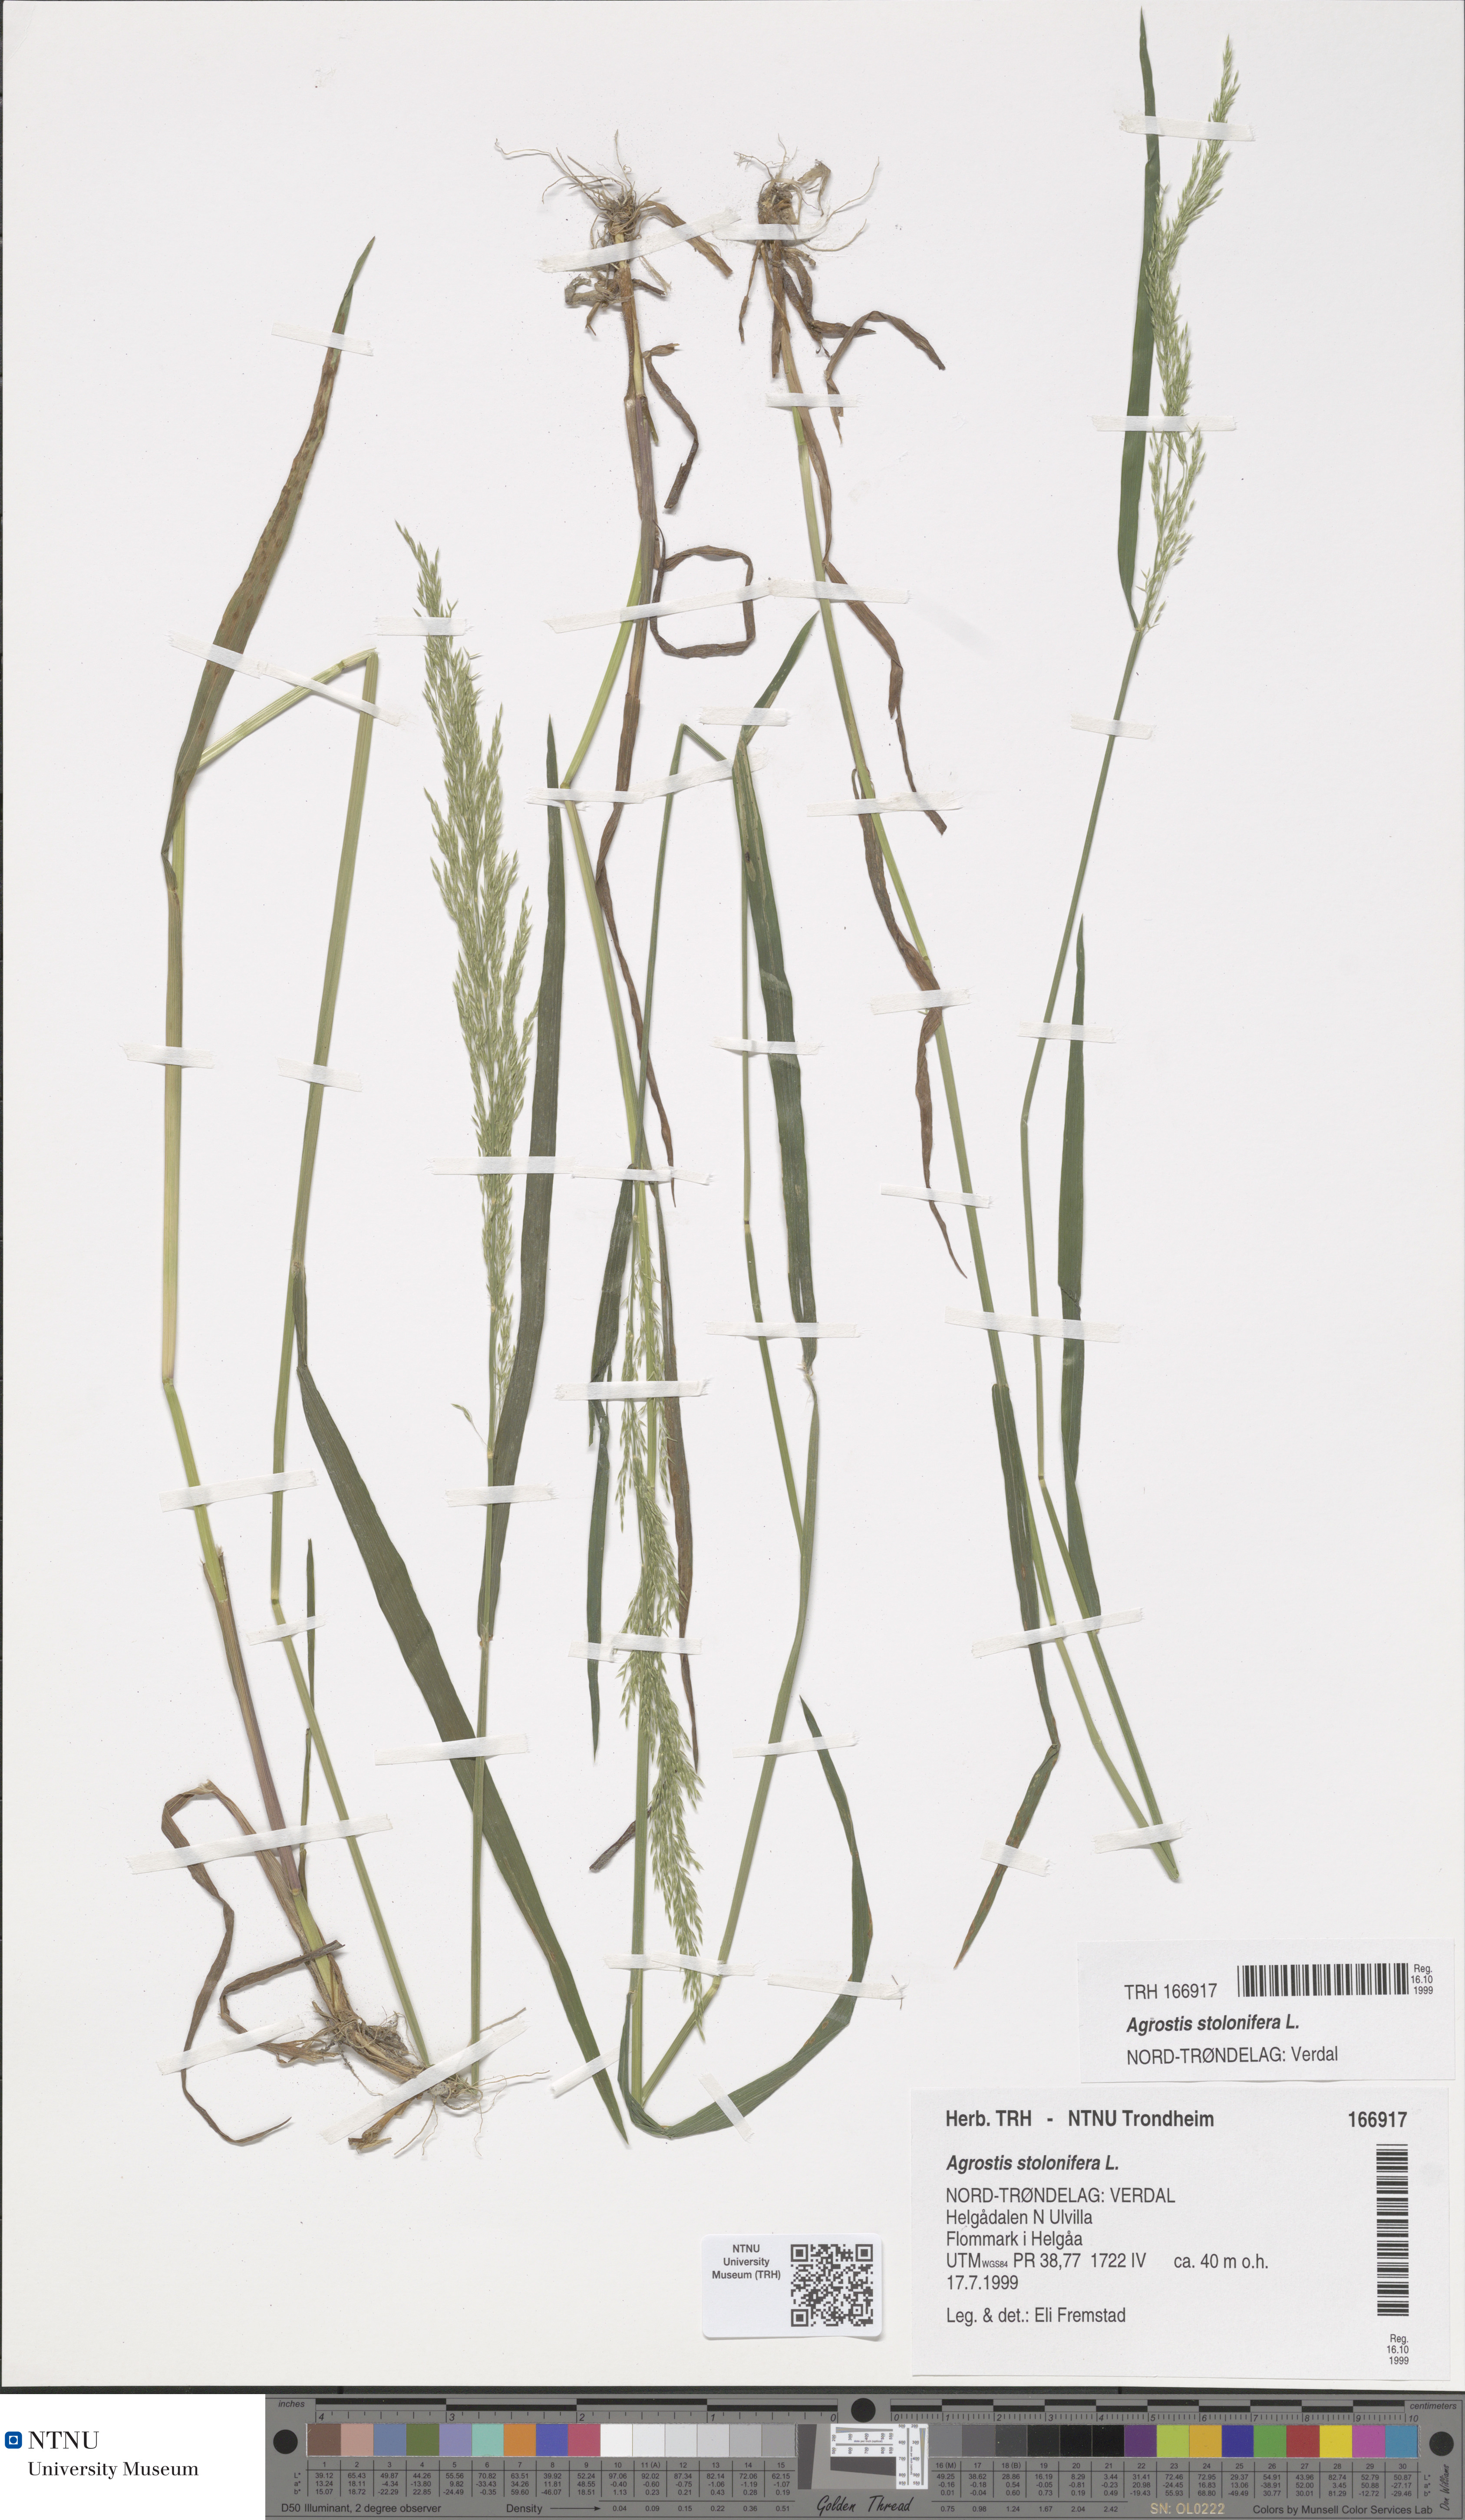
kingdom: Plantae
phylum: Tracheophyta
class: Liliopsida
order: Poales
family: Poaceae
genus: Agrostis
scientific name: Agrostis stolonifera
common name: Creeping bentgrass
